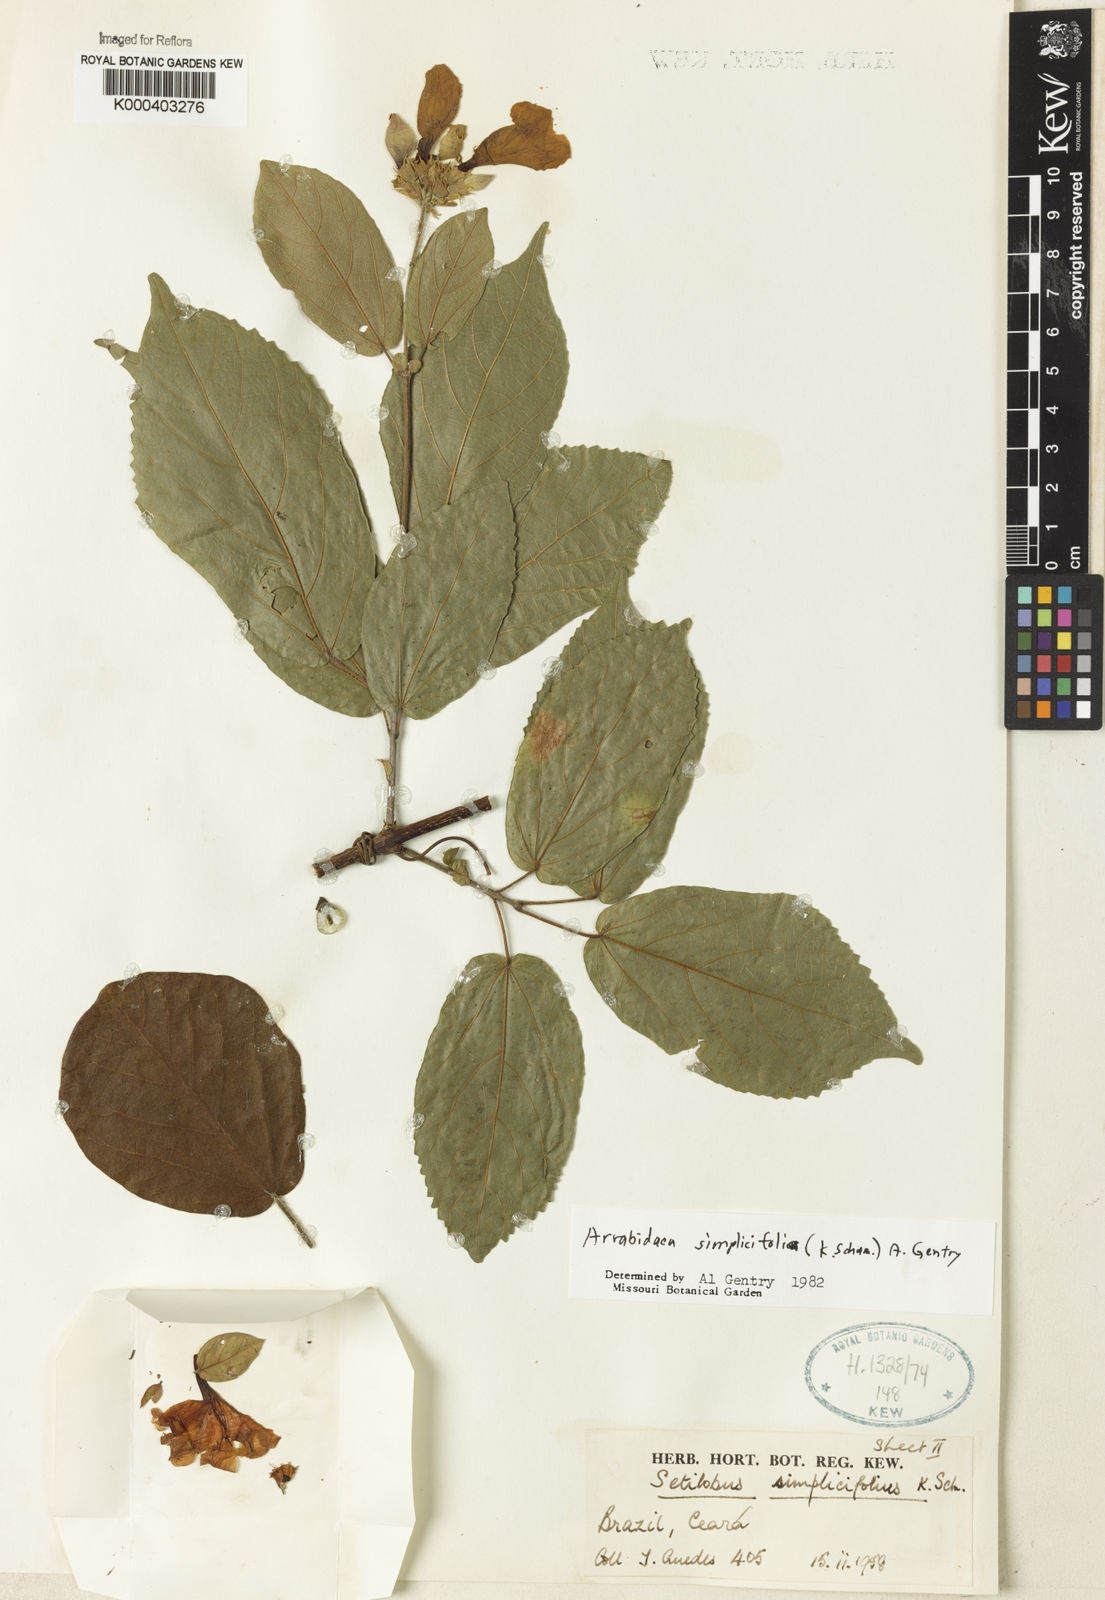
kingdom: Plantae
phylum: Tracheophyta
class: Magnoliopsida
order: Rosales
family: Rhamnaceae
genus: Arrabidaea
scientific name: Arrabidaea
